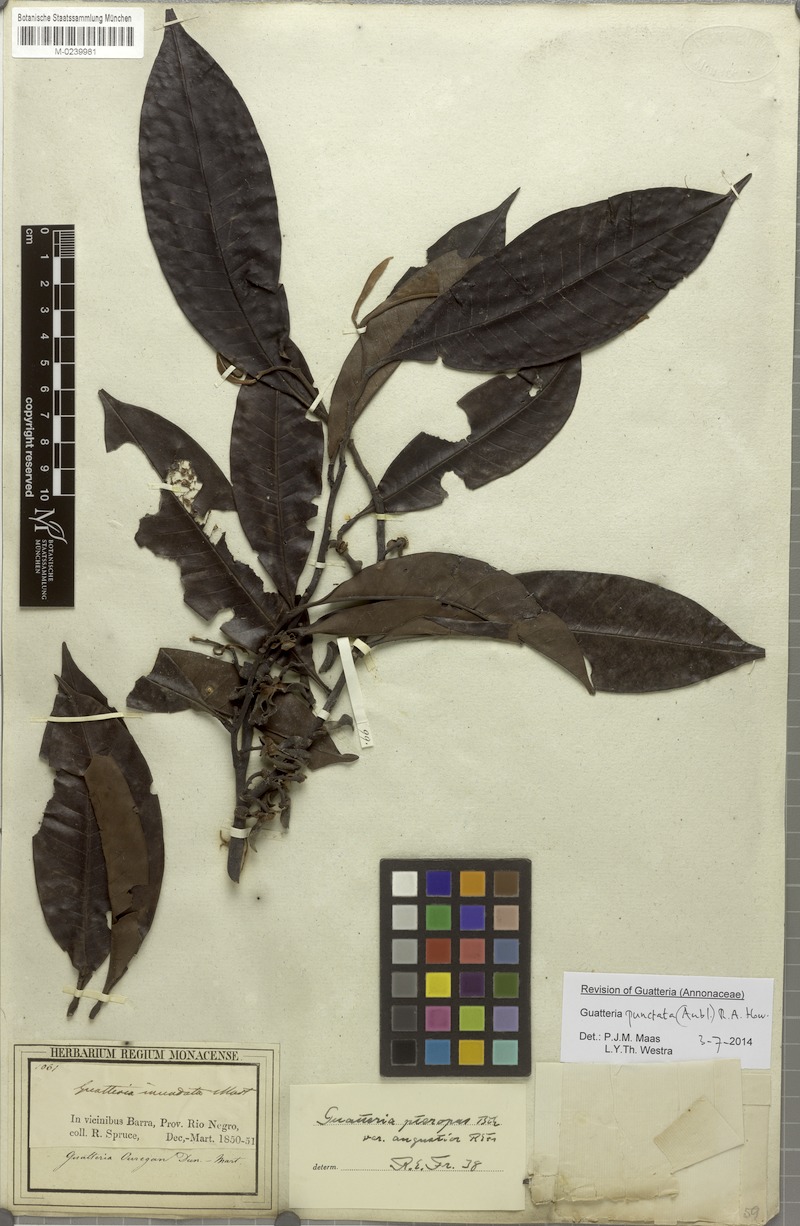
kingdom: Plantae
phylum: Tracheophyta
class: Magnoliopsida
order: Magnoliales
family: Annonaceae
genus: Guatteria
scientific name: Guatteria punctata
